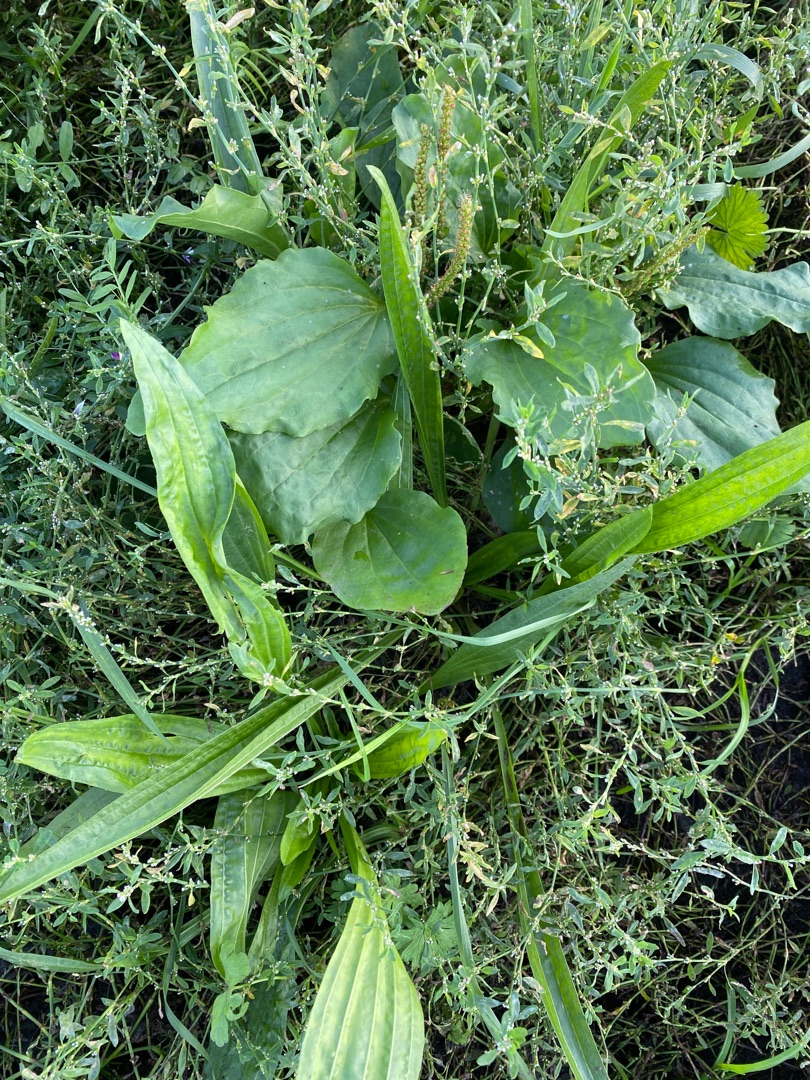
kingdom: Plantae
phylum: Tracheophyta
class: Magnoliopsida
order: Lamiales
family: Plantaginaceae
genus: Plantago
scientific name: Plantago major
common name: Glat vejbred
